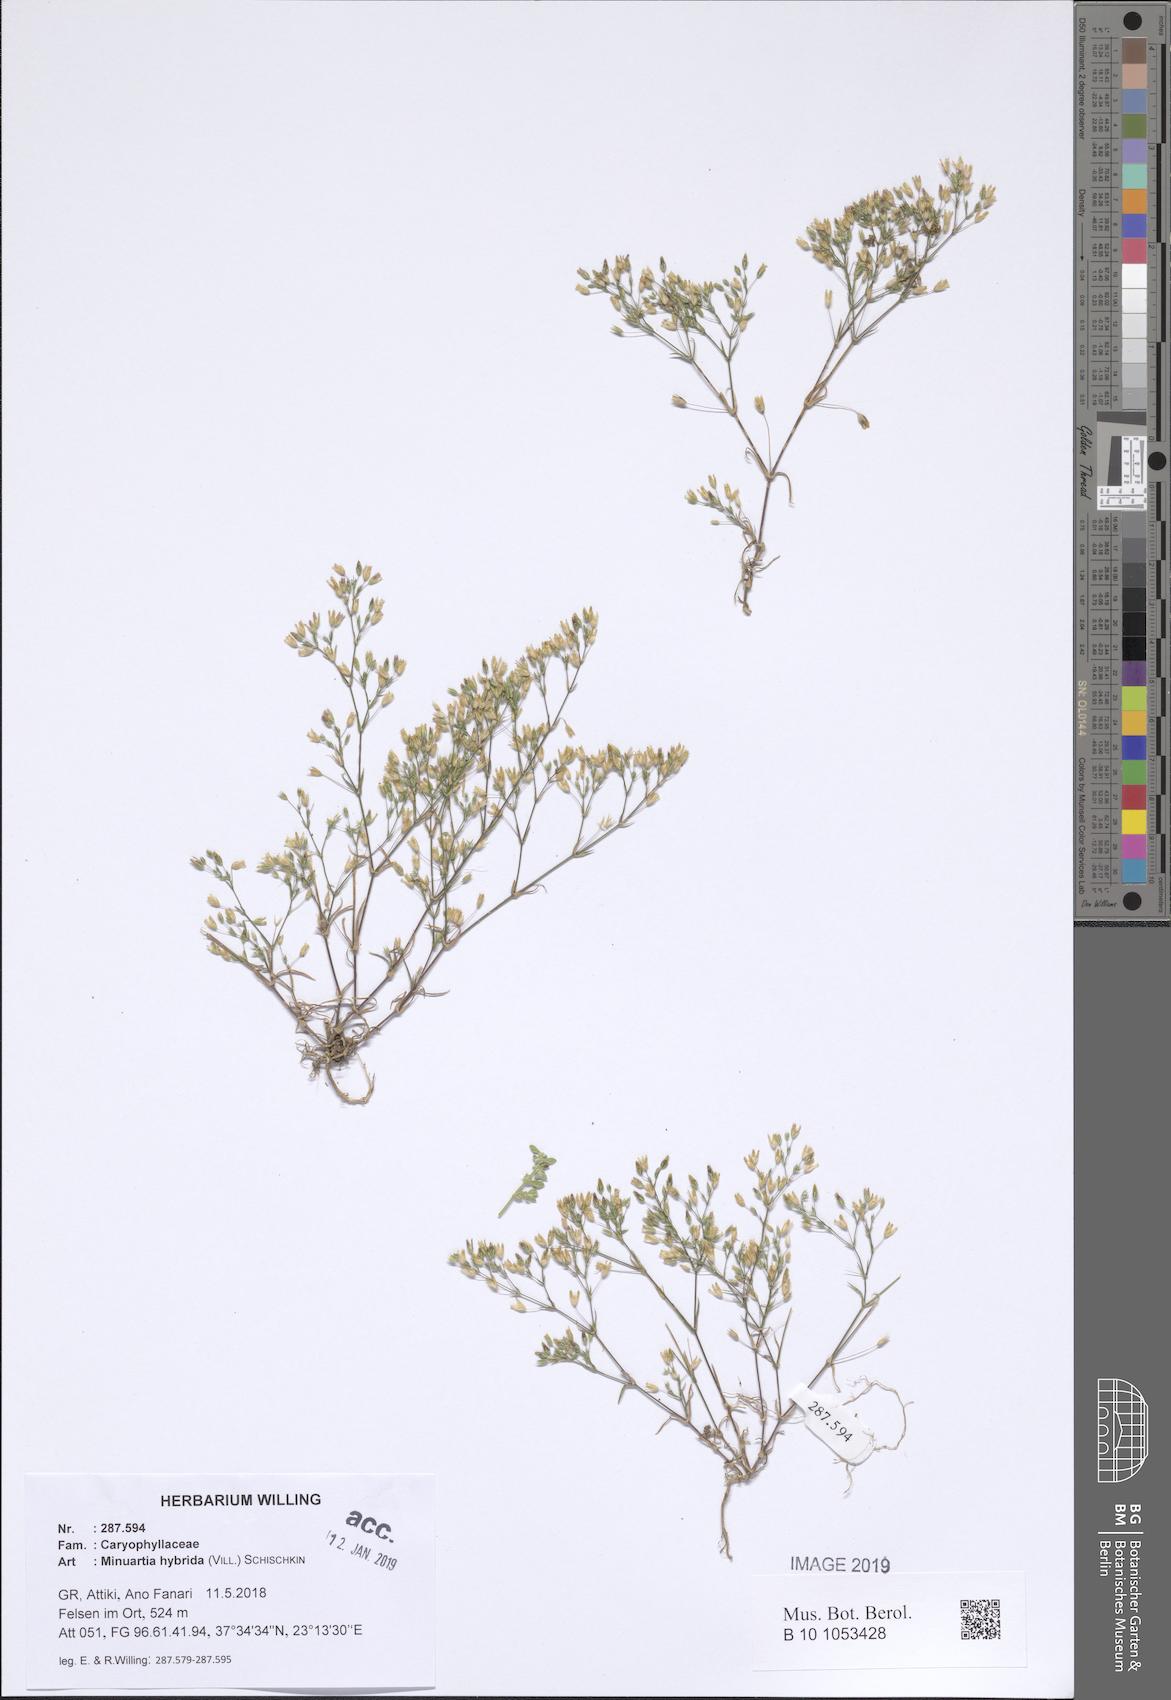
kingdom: Plantae
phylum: Tracheophyta
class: Magnoliopsida
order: Caryophyllales
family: Caryophyllaceae
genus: Sabulina
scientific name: Sabulina tenuifolia
